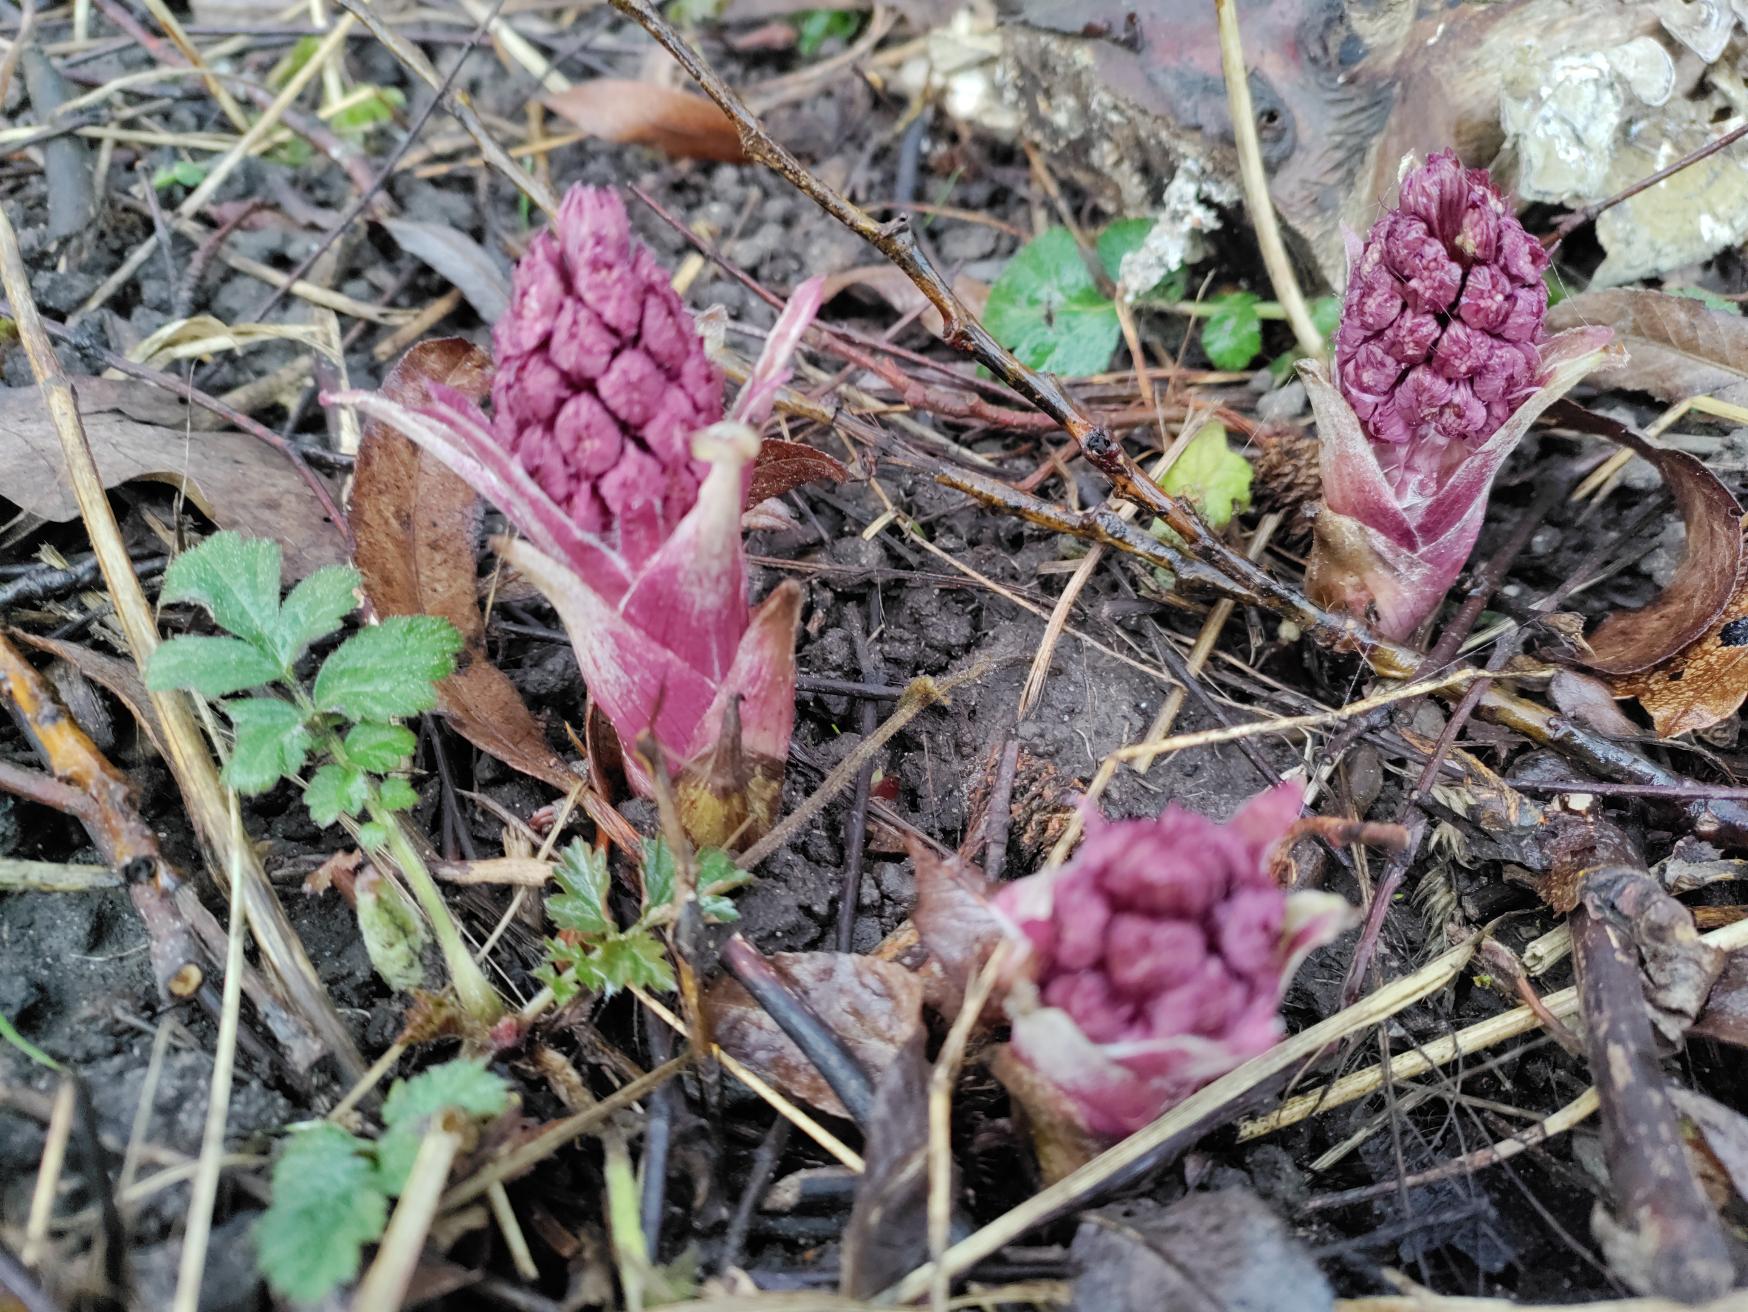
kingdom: Plantae
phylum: Tracheophyta
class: Magnoliopsida
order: Asterales
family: Asteraceae
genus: Petasites
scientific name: Petasites hybridus
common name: Rød hestehov
